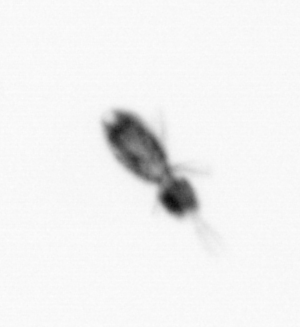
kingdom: Animalia
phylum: Arthropoda
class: Copepoda
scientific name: Copepoda
